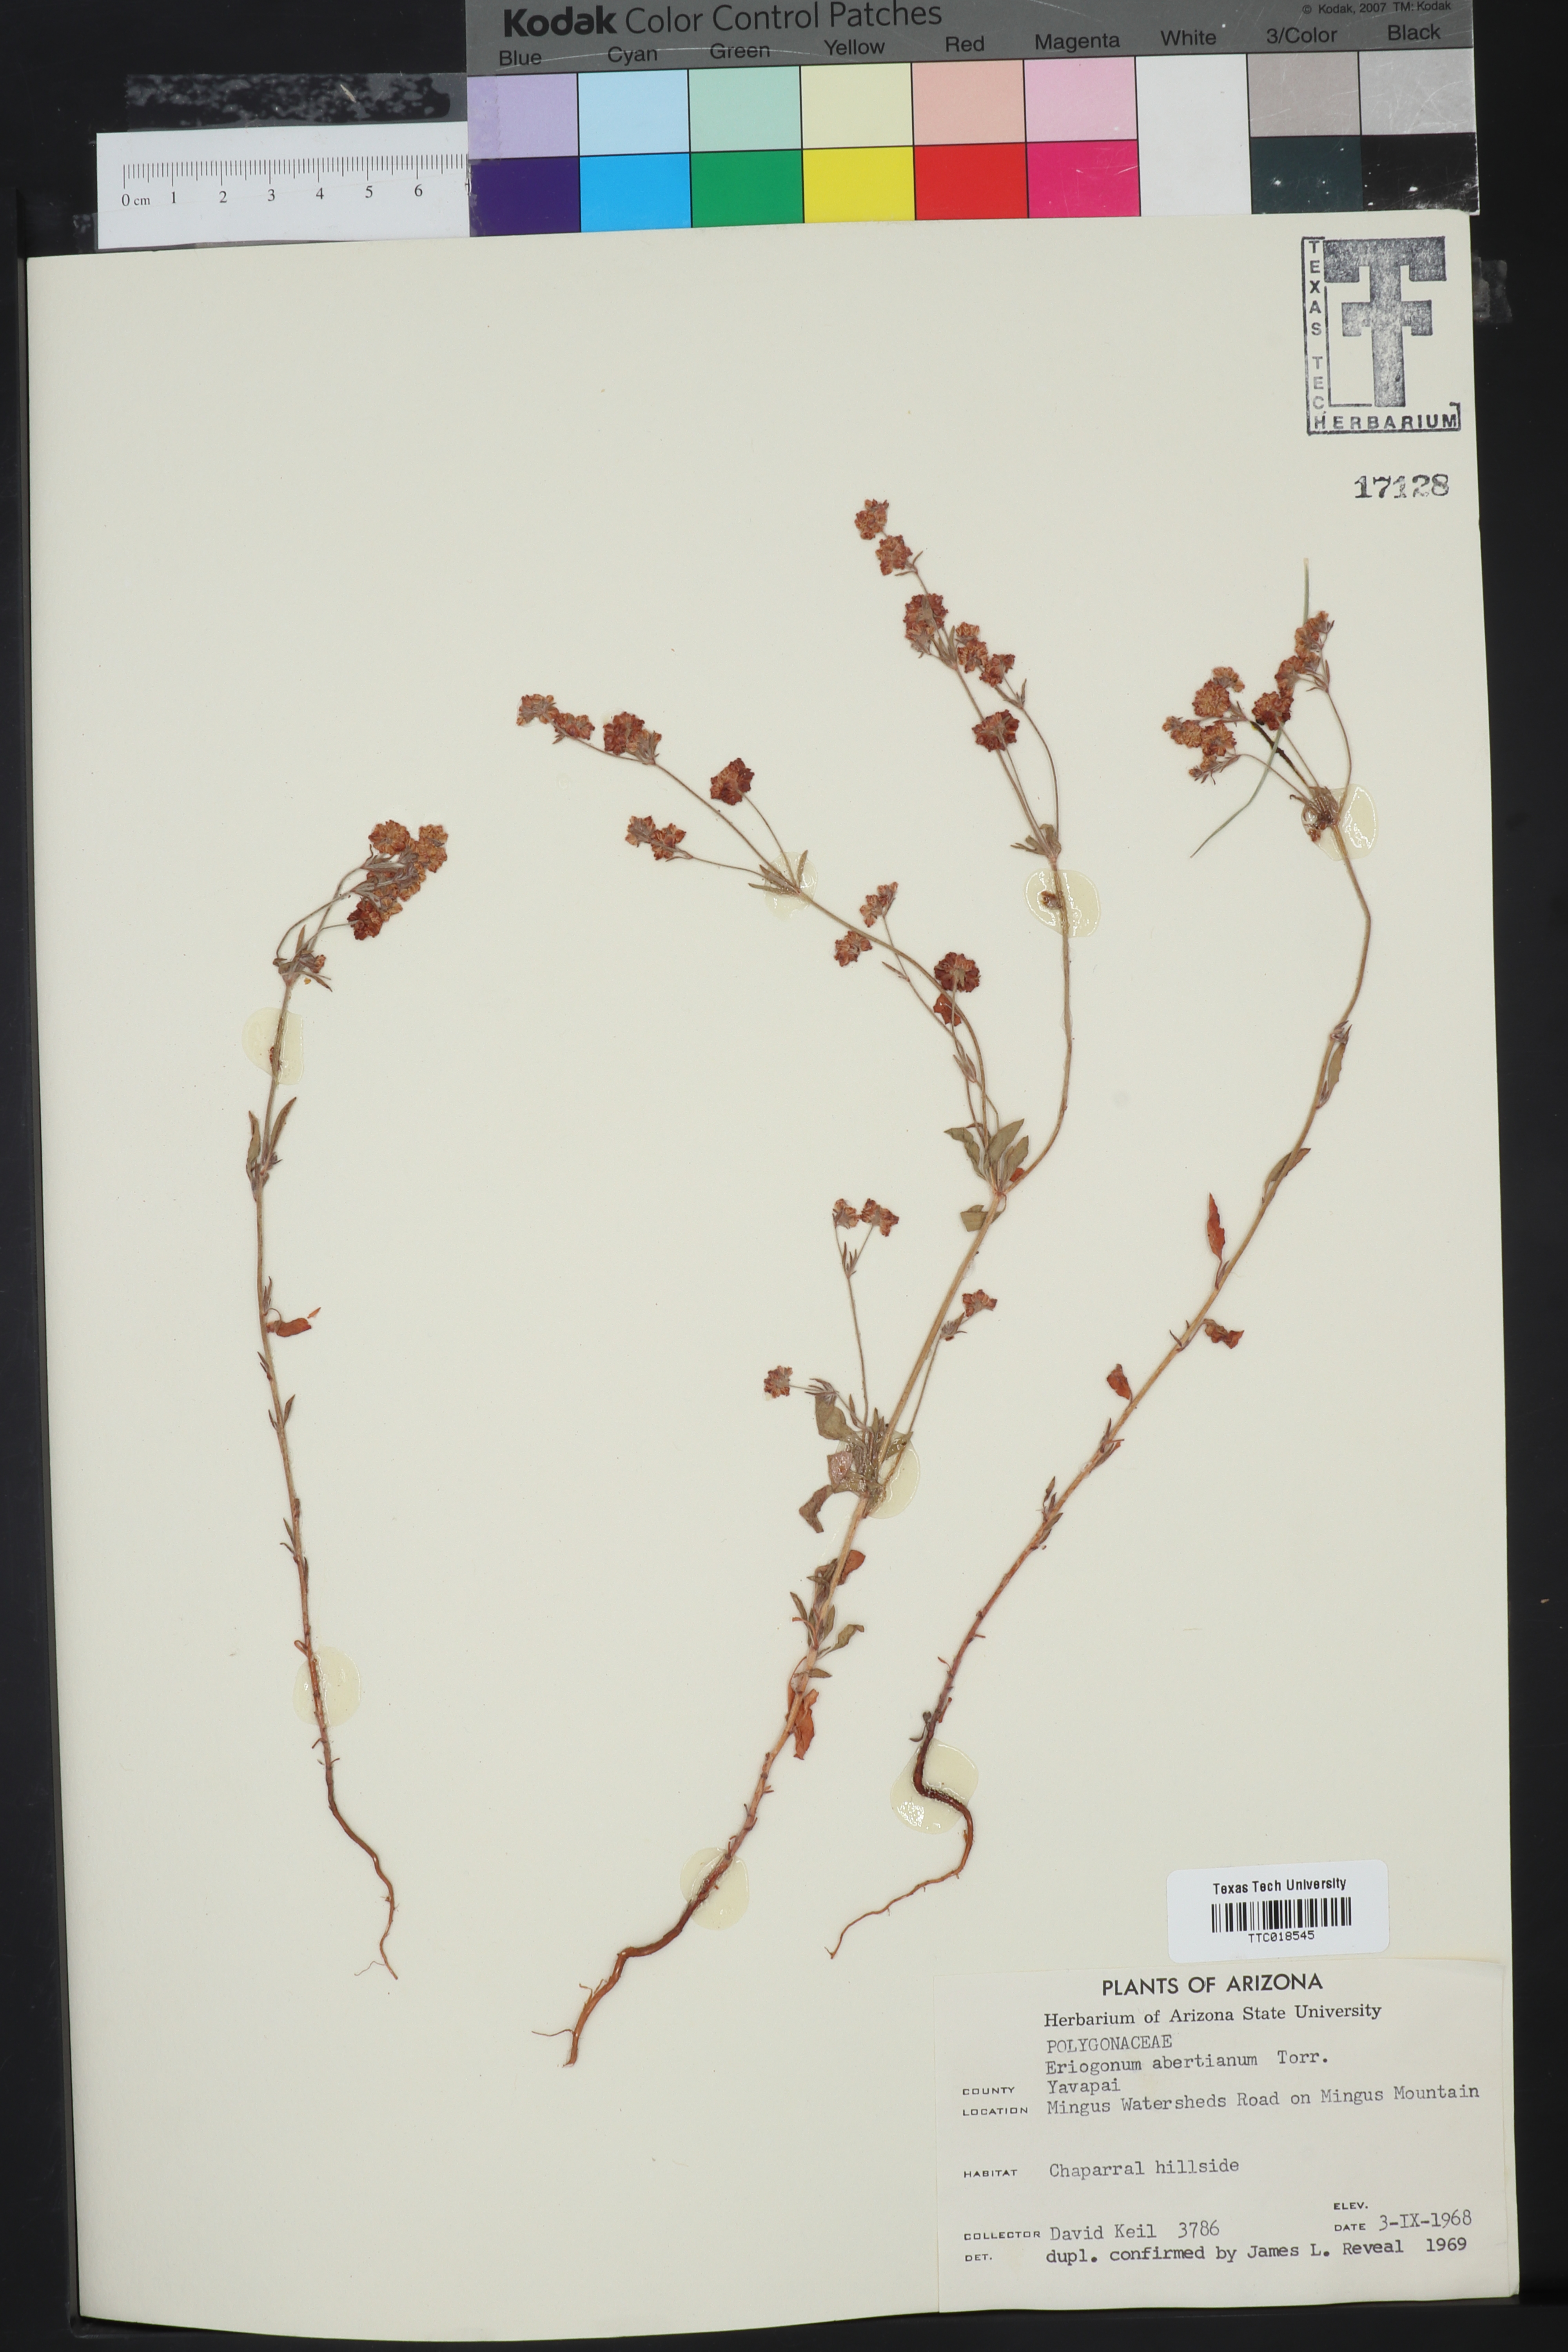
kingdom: Plantae
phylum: Tracheophyta
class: Magnoliopsida
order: Caryophyllales
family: Polygonaceae
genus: Eriogonum
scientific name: Eriogonum abertianum
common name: Abert's wild buckwheat
